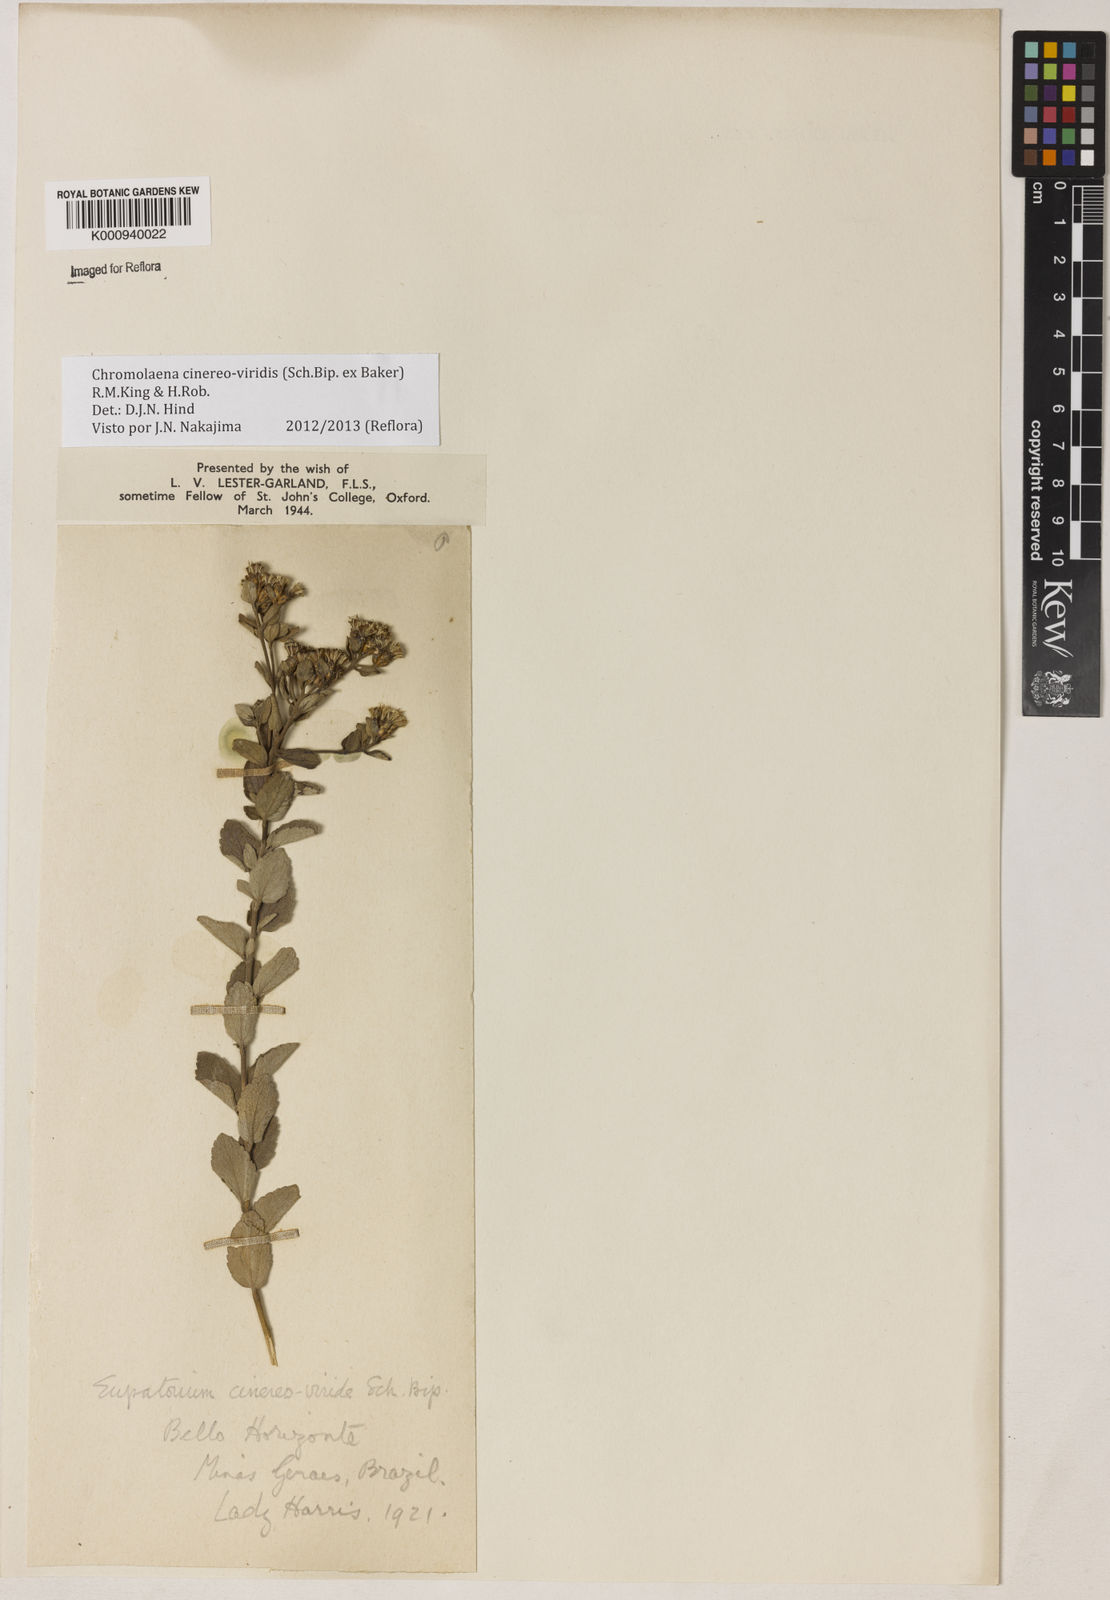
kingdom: Plantae
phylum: Tracheophyta
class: Magnoliopsida
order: Asterales
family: Asteraceae
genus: Chromolaena
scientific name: Chromolaena cinereoviridis
